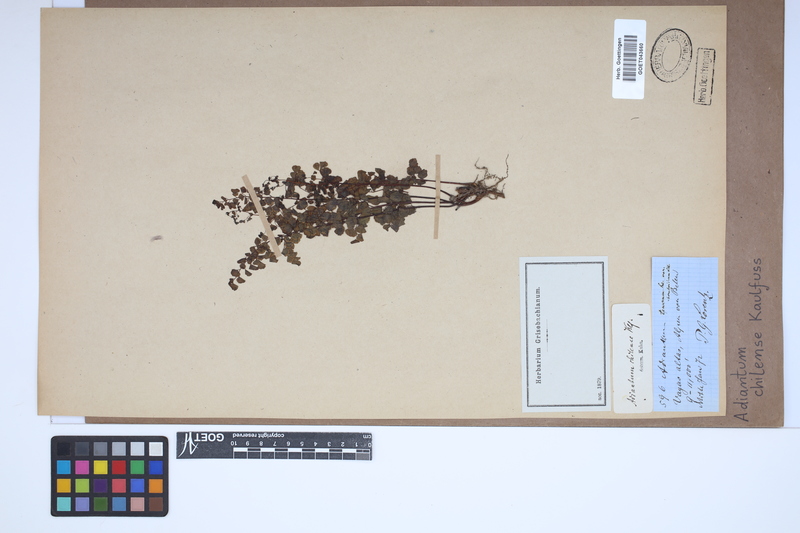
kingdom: Plantae
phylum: Tracheophyta
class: Polypodiopsida
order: Polypodiales
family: Pteridaceae
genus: Adiantum
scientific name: Adiantum chilense
